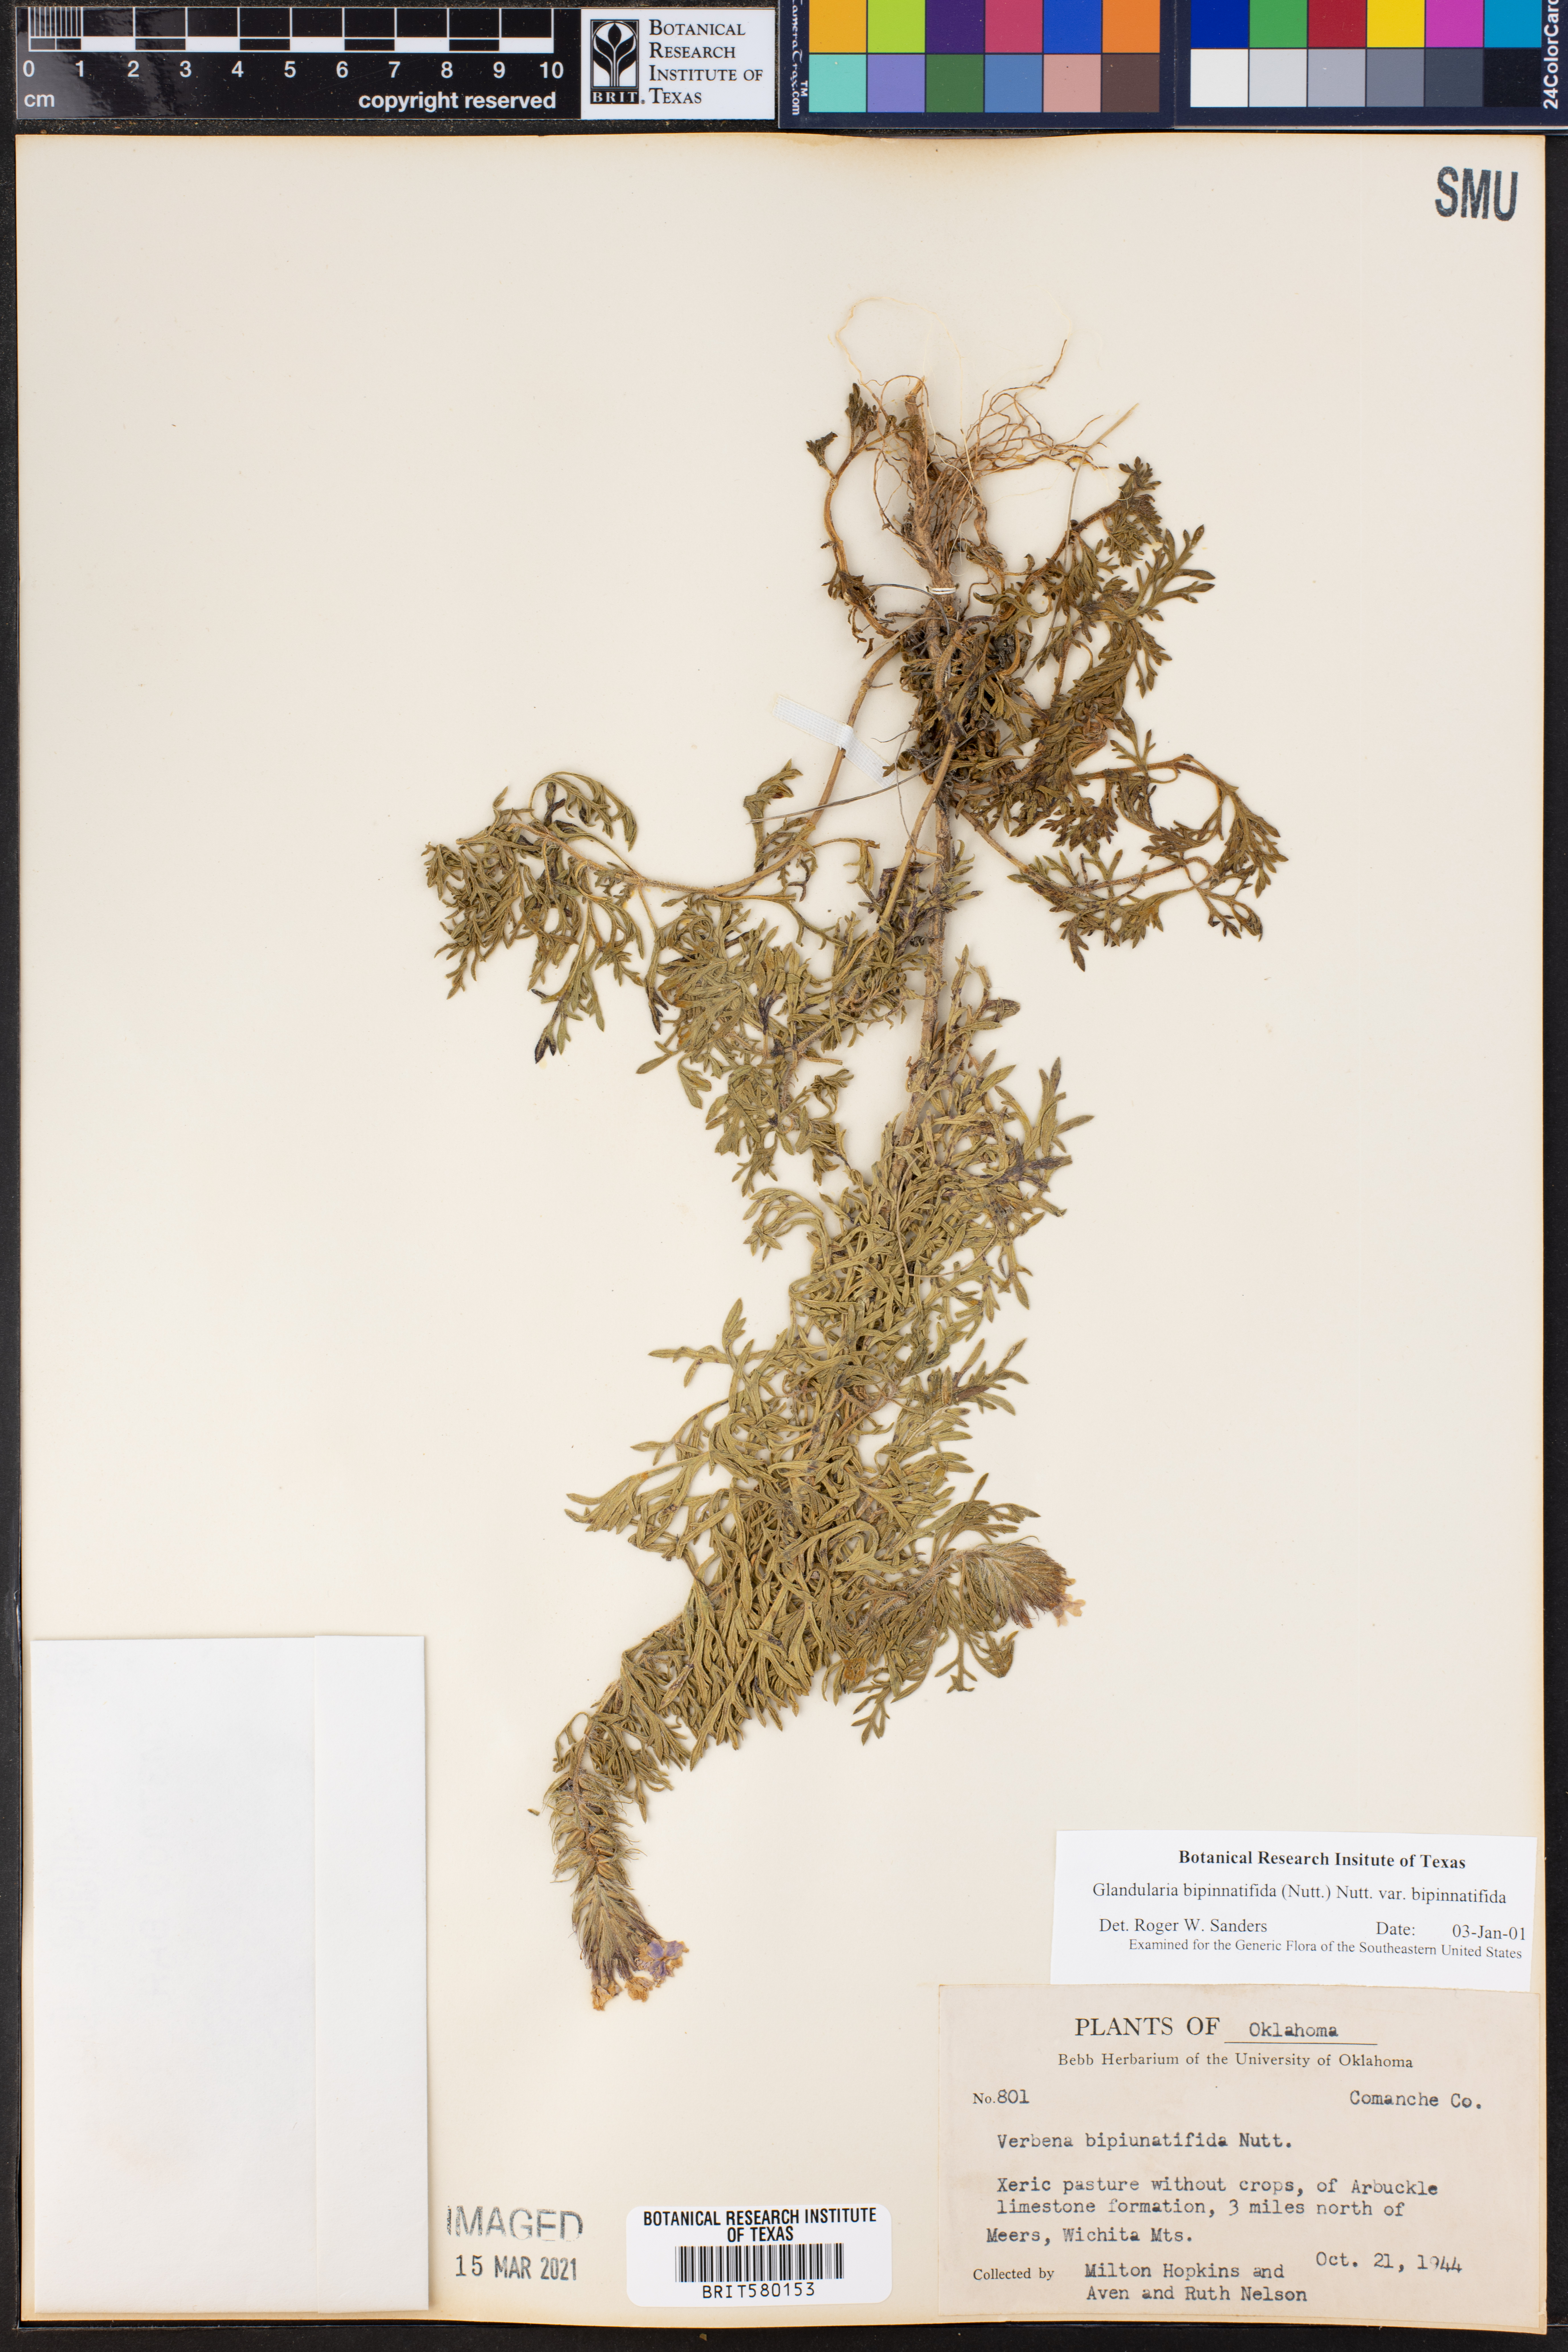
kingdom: Plantae
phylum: Tracheophyta
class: Magnoliopsida
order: Lamiales
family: Verbenaceae
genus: Verbena
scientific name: Verbena bipinnatifida
